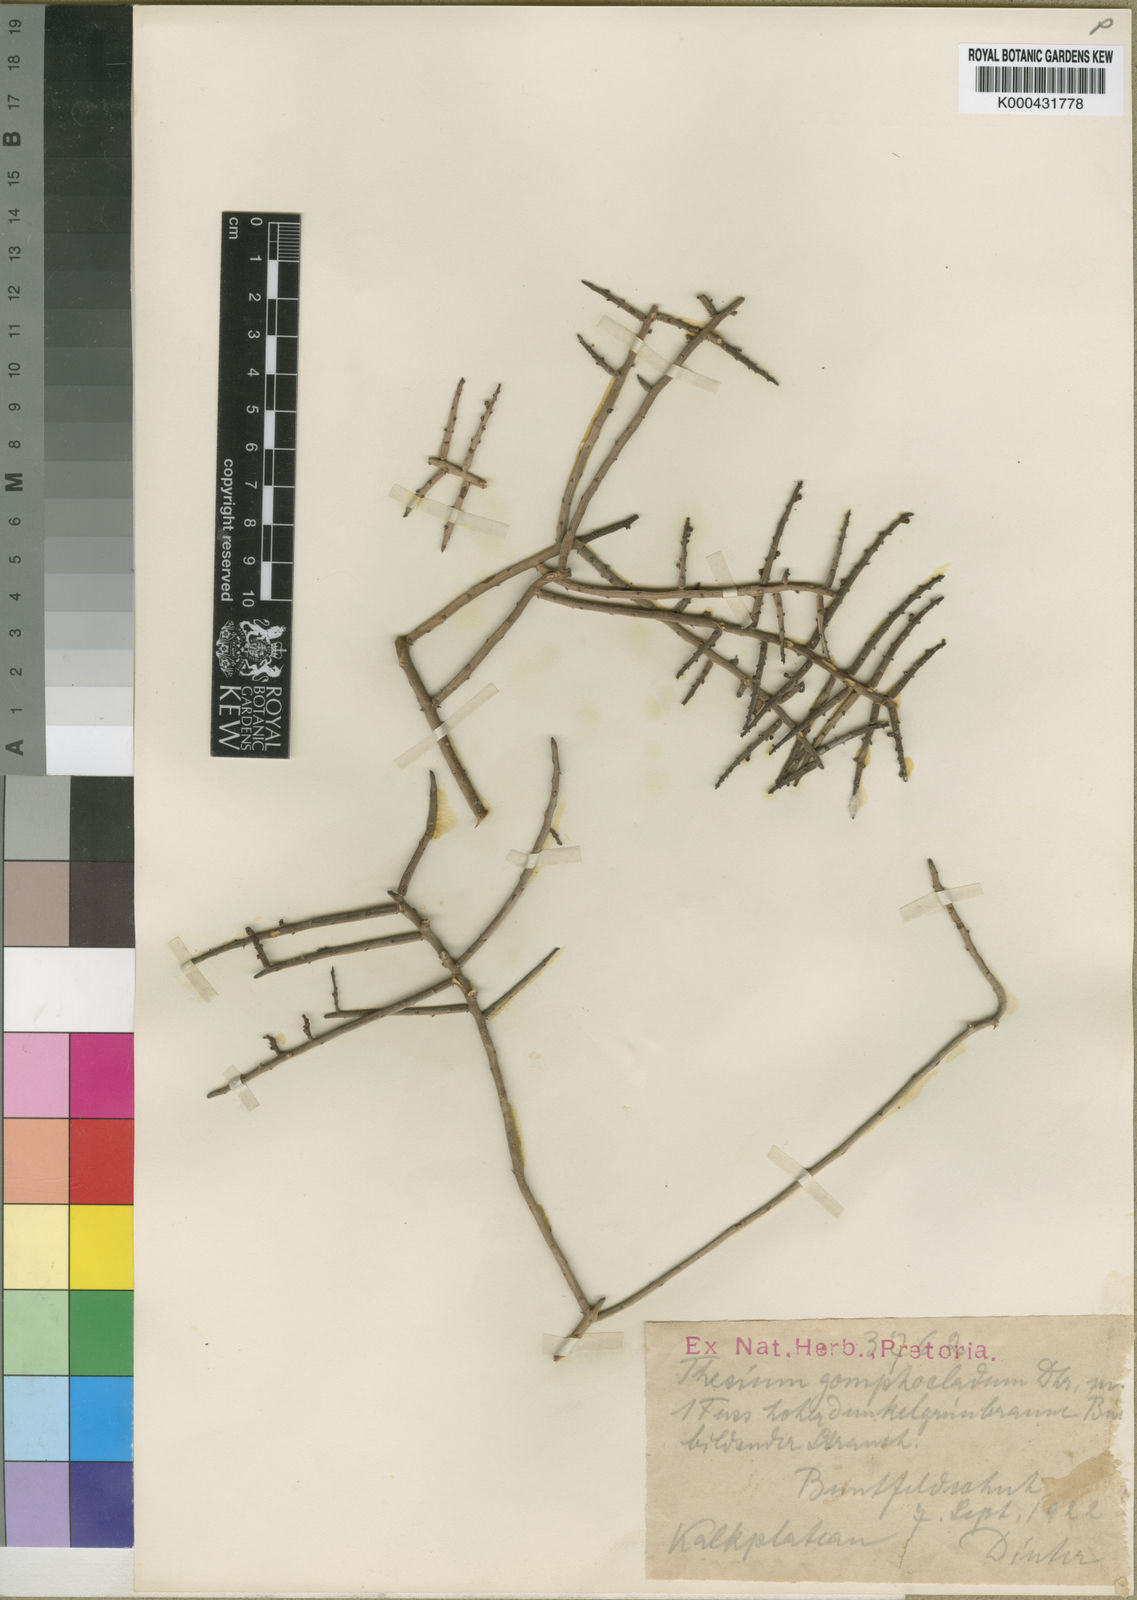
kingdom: Plantae
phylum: Tracheophyta
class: Magnoliopsida
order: Santalales
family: Thesiaceae
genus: Thesium
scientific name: Thesium
